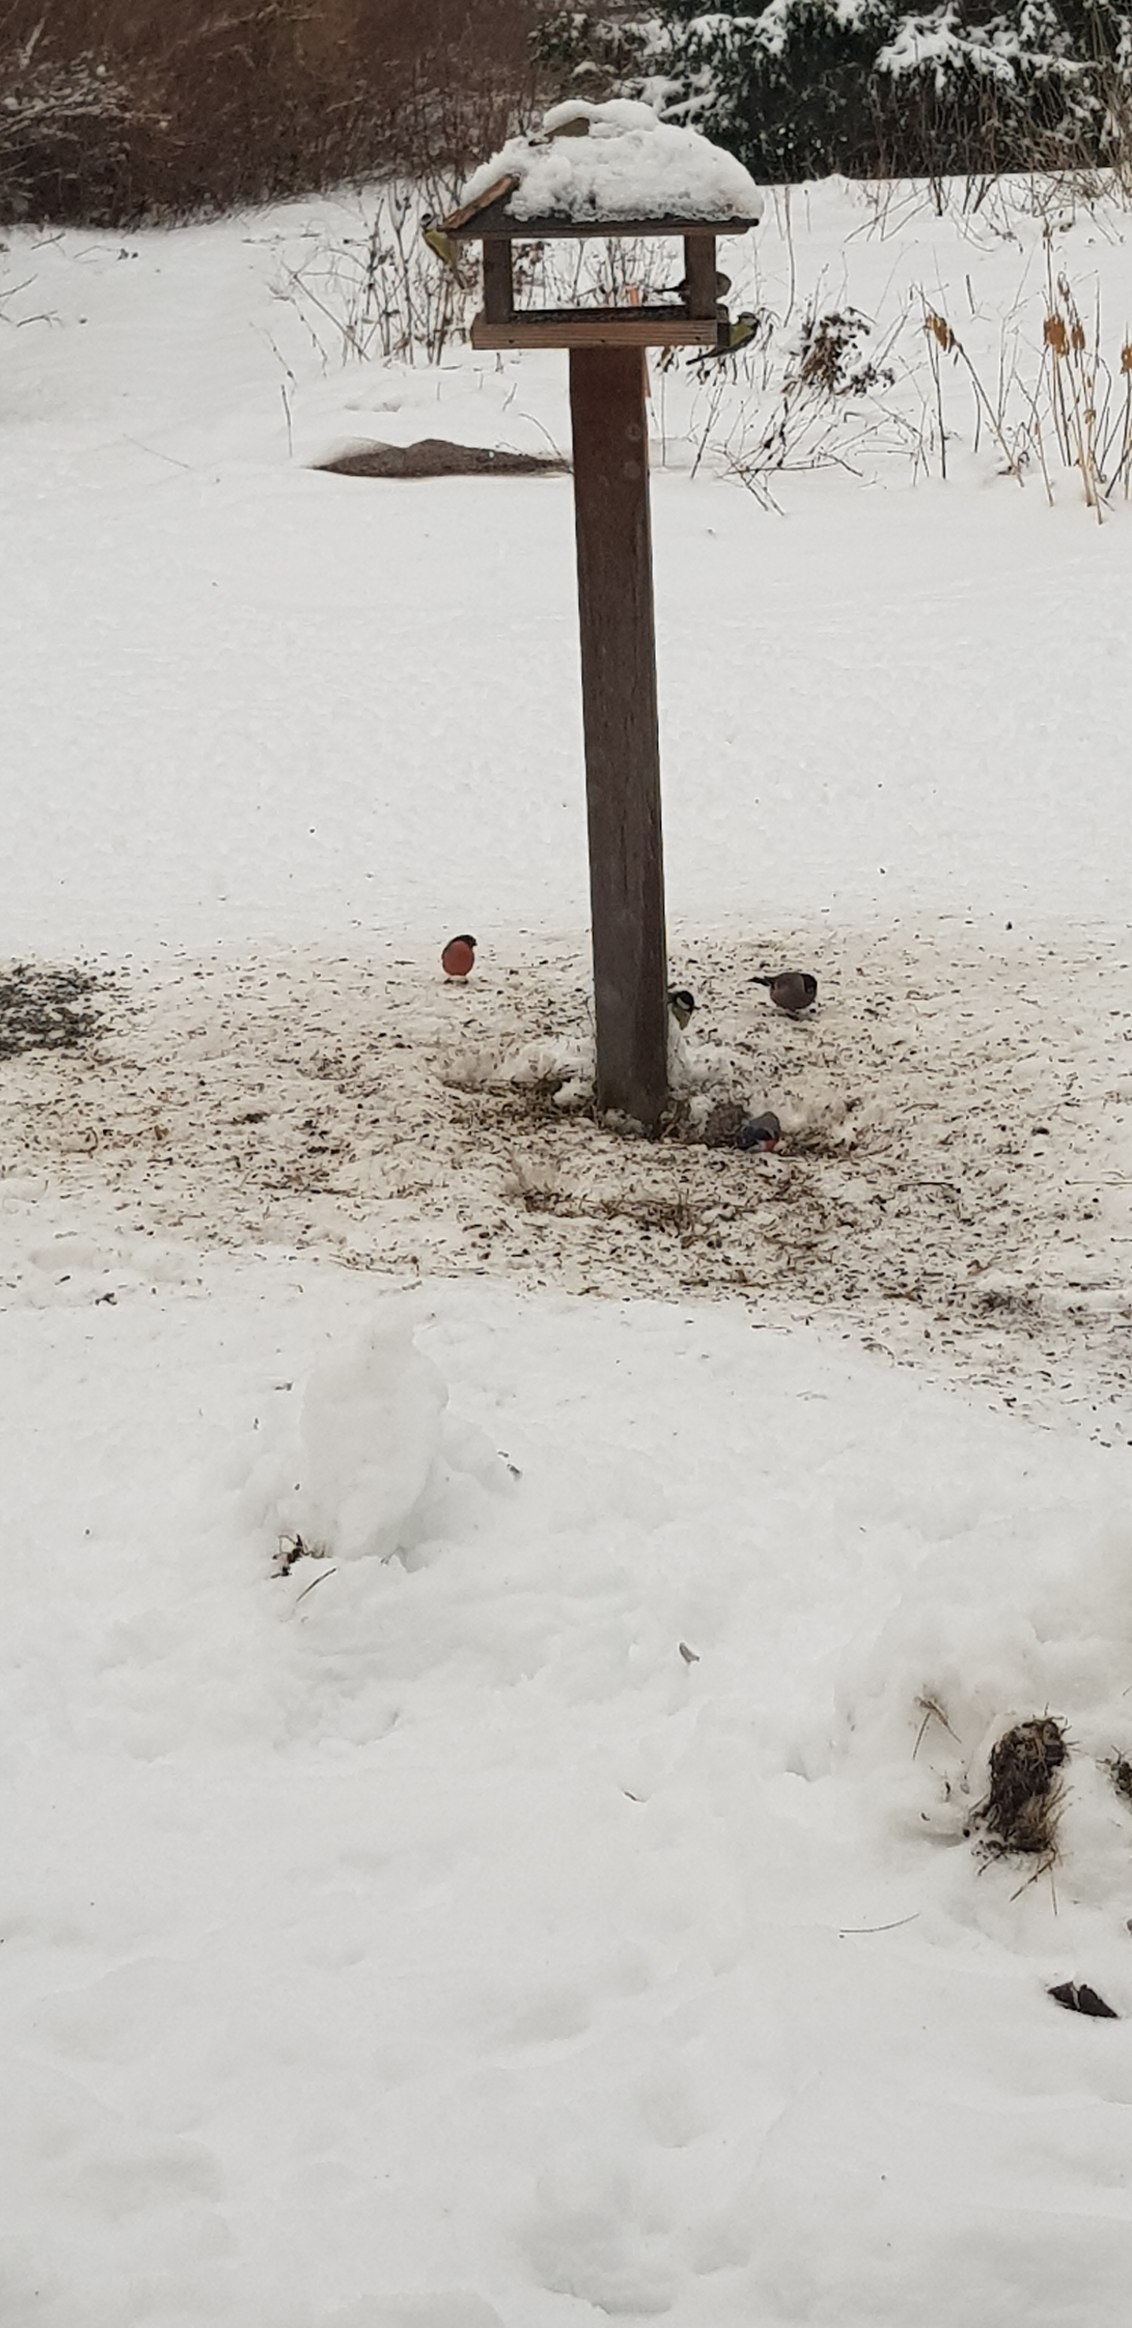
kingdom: Animalia
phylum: Chordata
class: Aves
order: Passeriformes
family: Fringillidae
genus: Pyrrhula
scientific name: Pyrrhula pyrrhula
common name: Dompap
